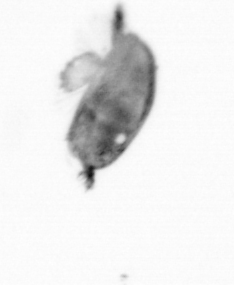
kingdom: Animalia
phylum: Arthropoda
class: Maxillopoda
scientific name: Maxillopoda
